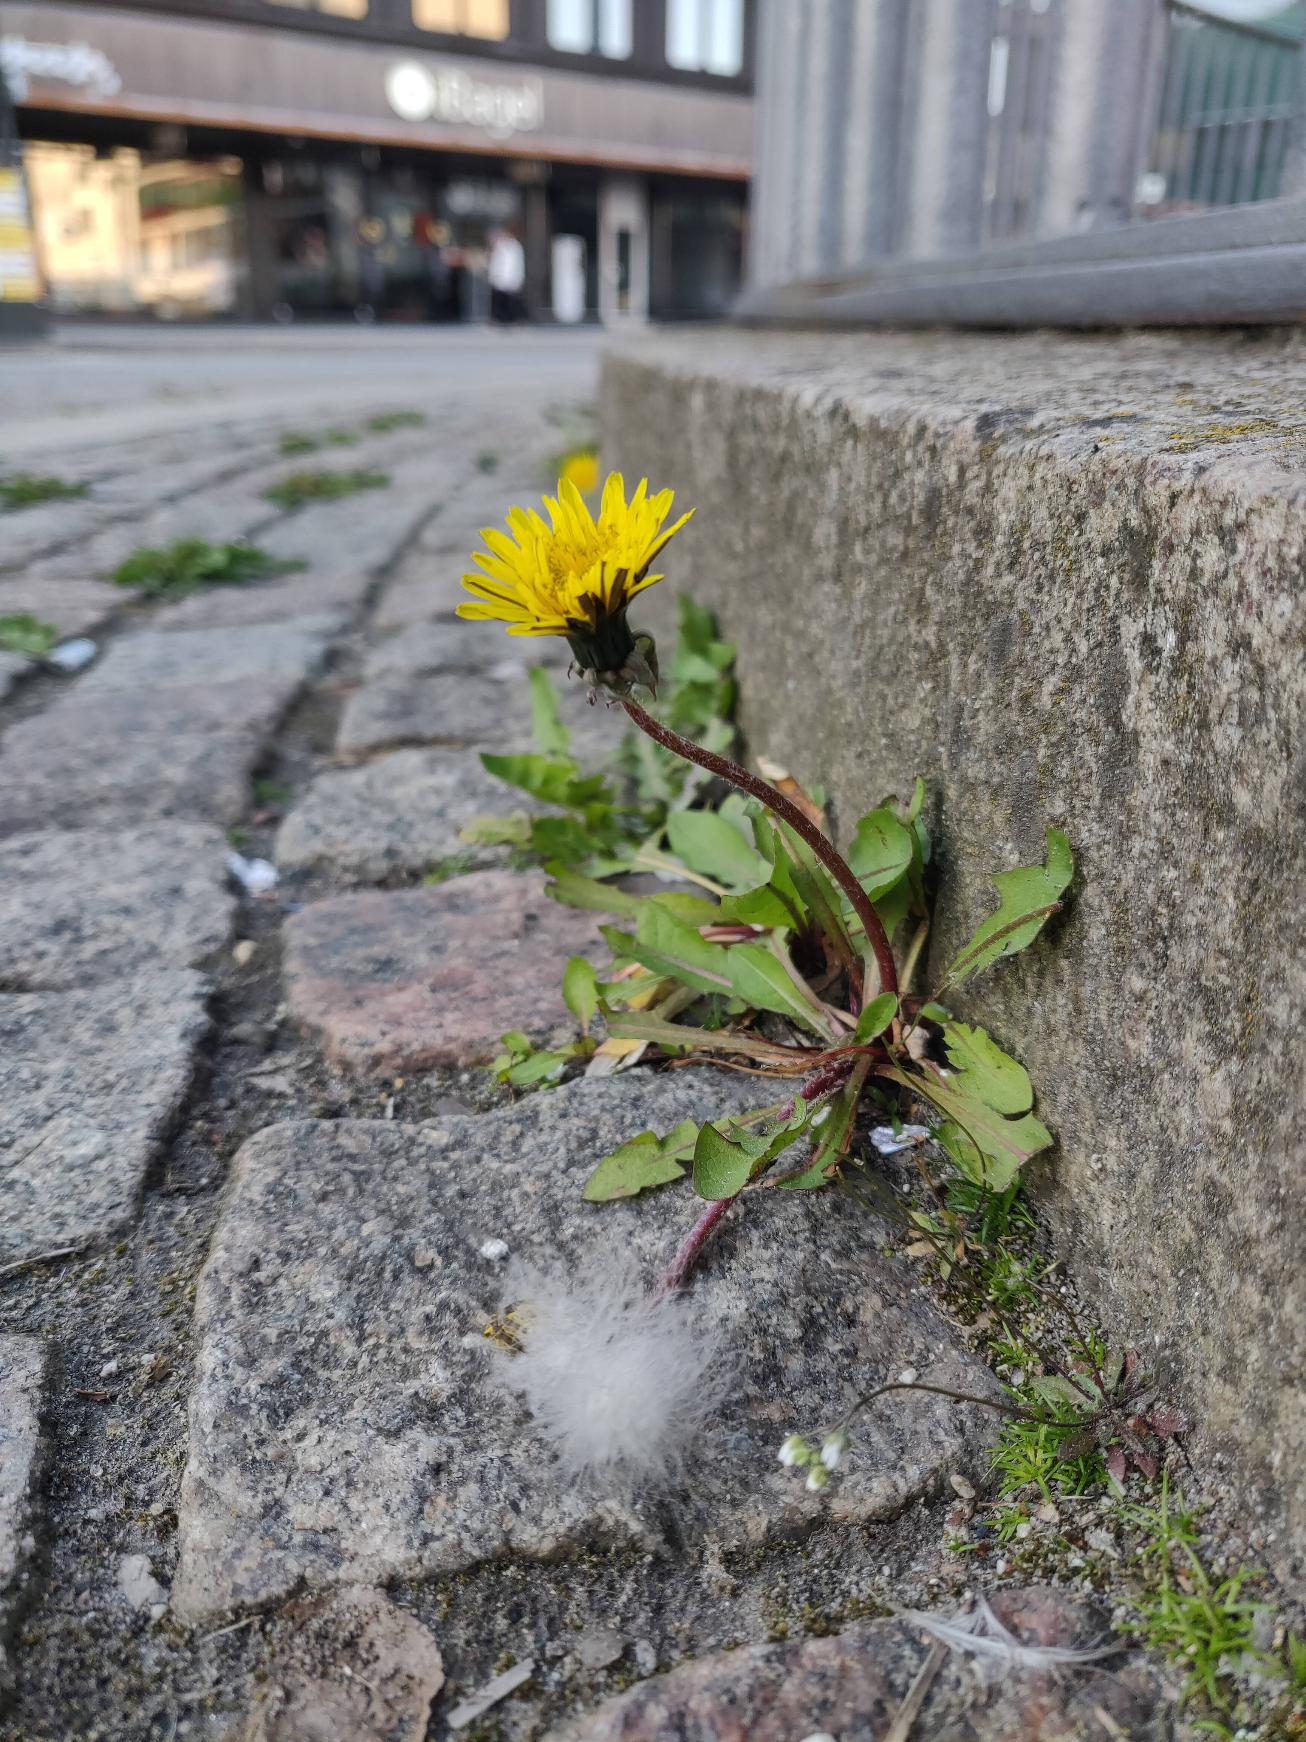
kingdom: Plantae
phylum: Tracheophyta
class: Magnoliopsida
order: Asterales
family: Asteraceae
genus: Taraxacum
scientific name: Taraxacum
